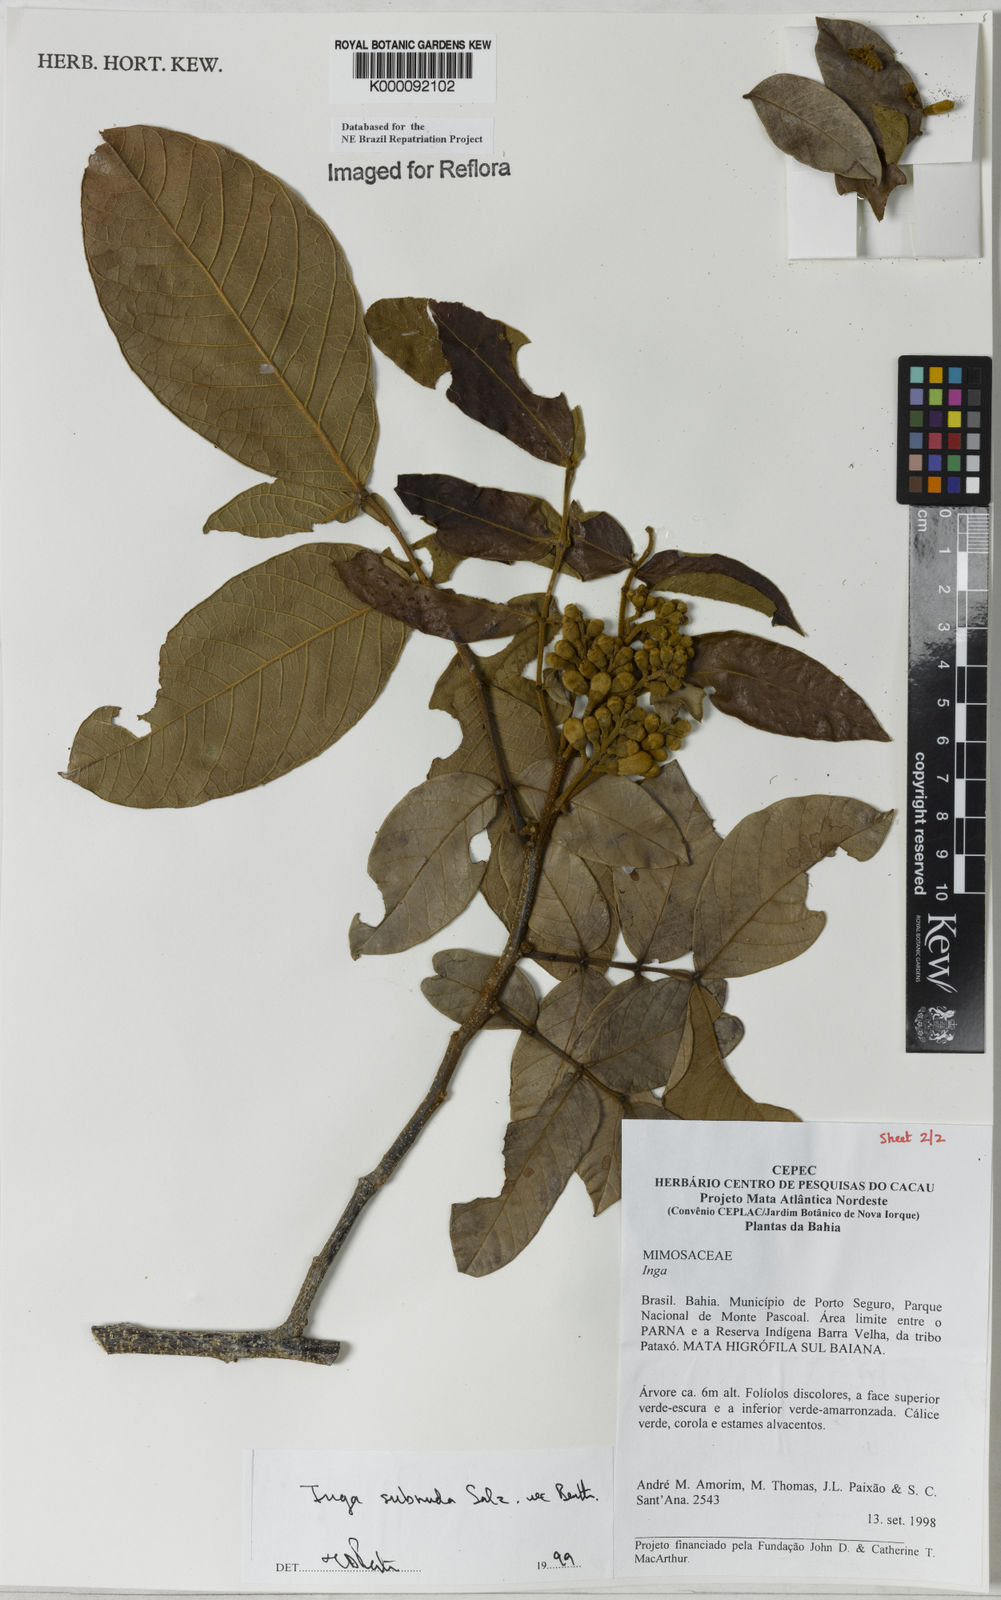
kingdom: Plantae
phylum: Tracheophyta
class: Magnoliopsida
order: Fabales
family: Fabaceae
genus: Inga
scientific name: Inga subnuda
